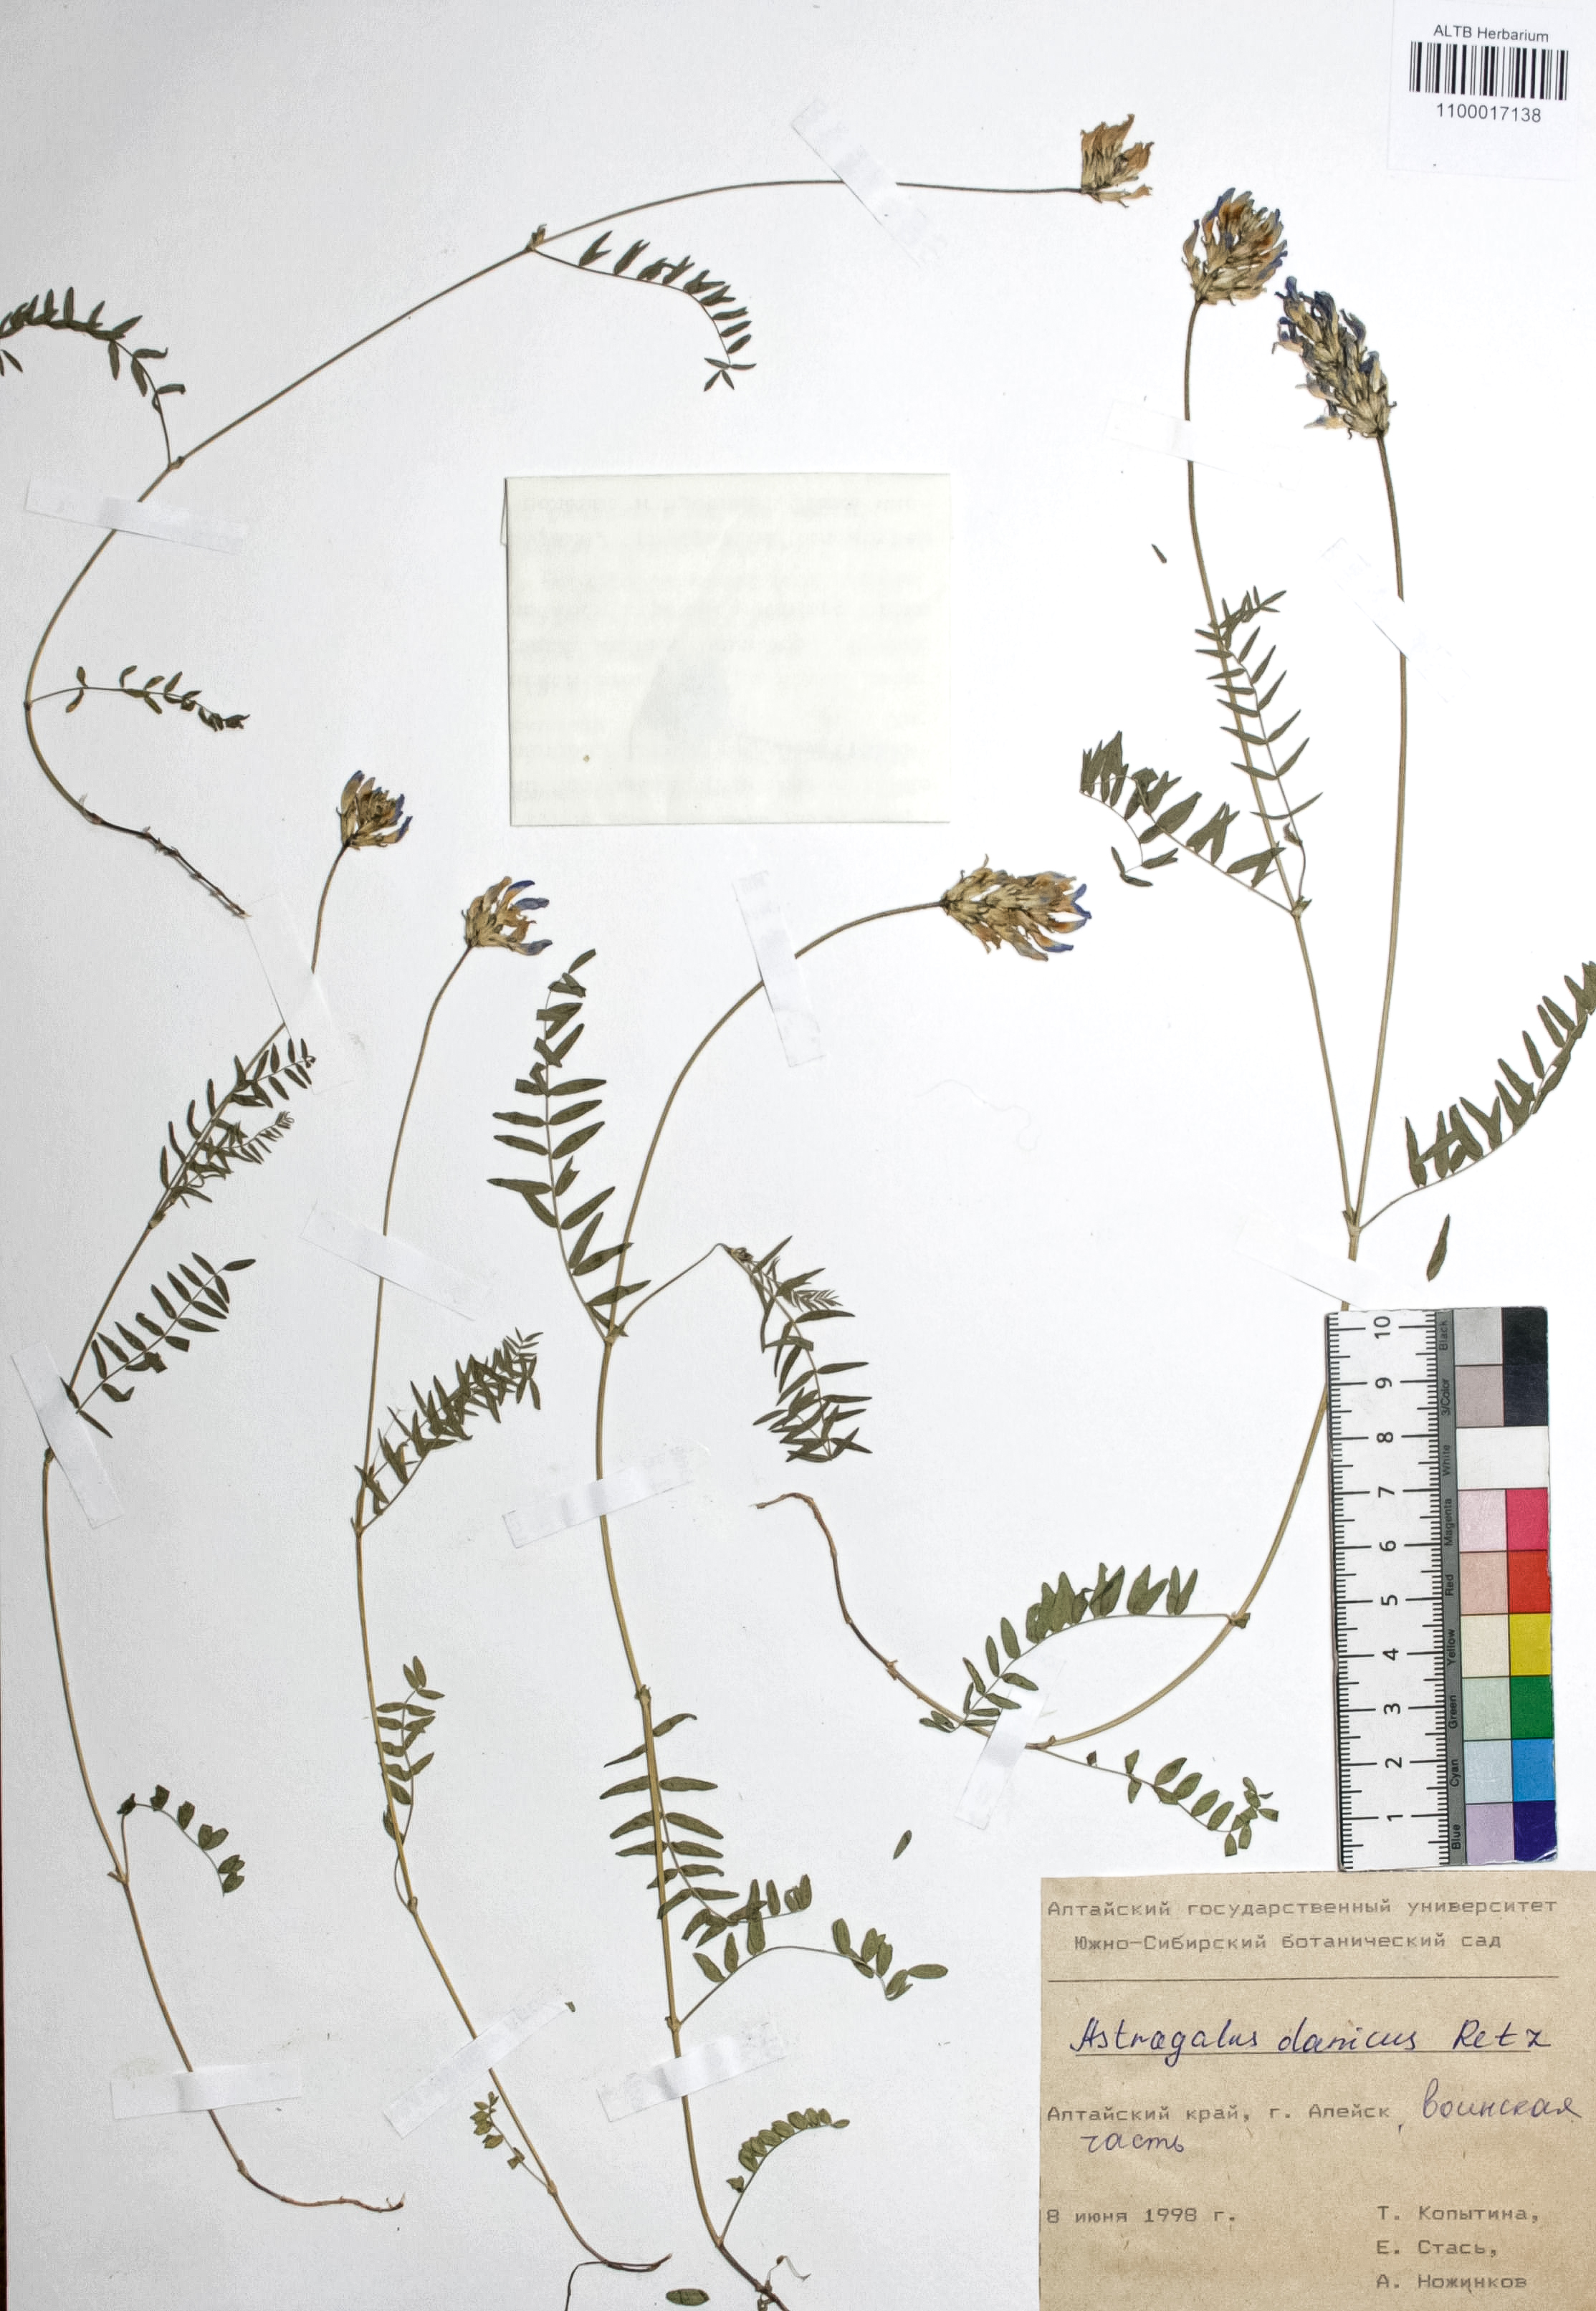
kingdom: Plantae
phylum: Tracheophyta
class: Magnoliopsida
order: Fabales
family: Fabaceae
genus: Astragalus
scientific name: Astragalus danicus
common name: Purple milk-vetch
